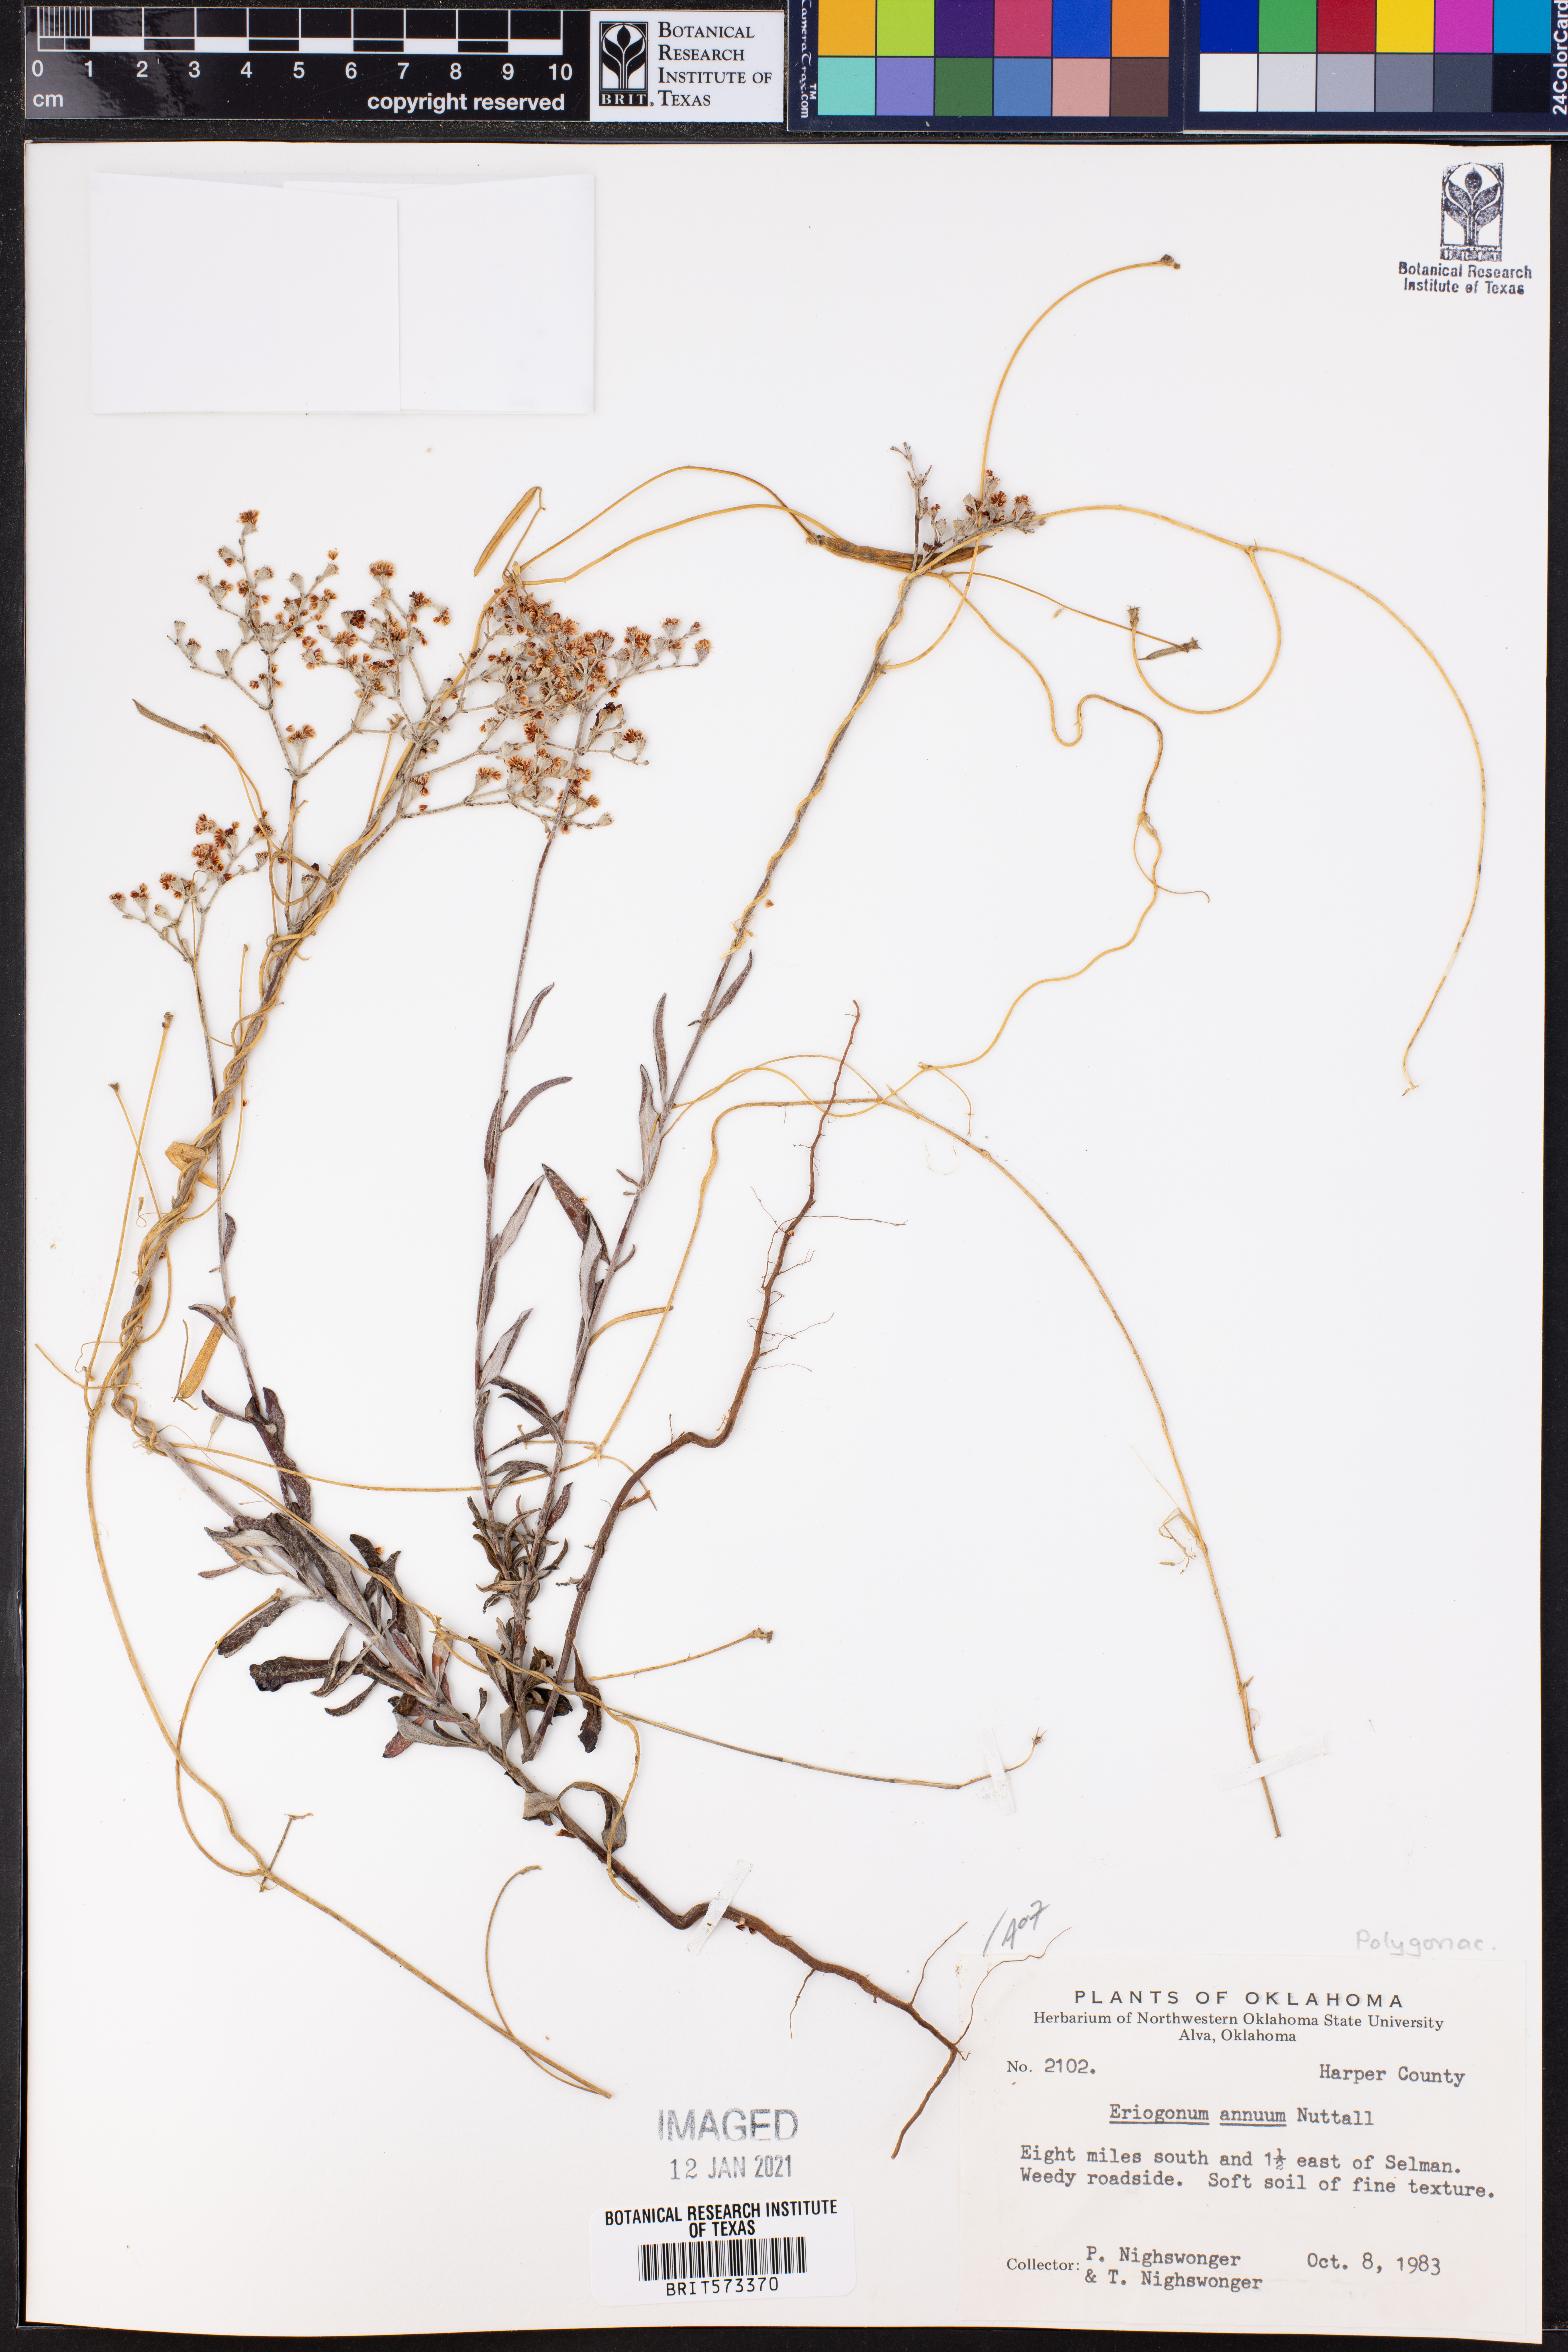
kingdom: Plantae
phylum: Tracheophyta
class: Magnoliopsida
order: Caryophyllales
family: Polygonaceae
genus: Eriogonum
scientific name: Eriogonum annuum
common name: Annual wild buckwheat
